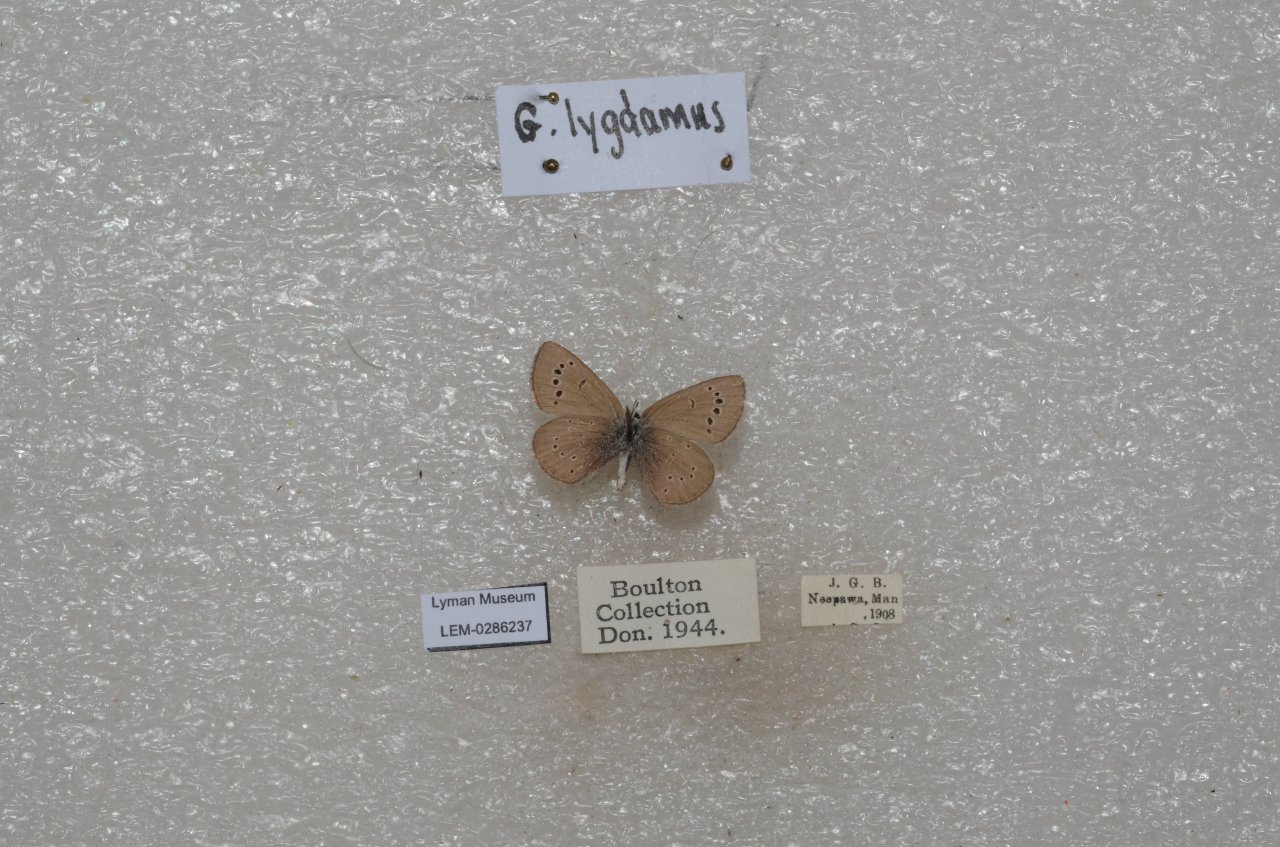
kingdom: Animalia
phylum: Arthropoda
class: Insecta
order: Lepidoptera
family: Lycaenidae
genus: Glaucopsyche
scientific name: Glaucopsyche lygdamus
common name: Silvery Blue
